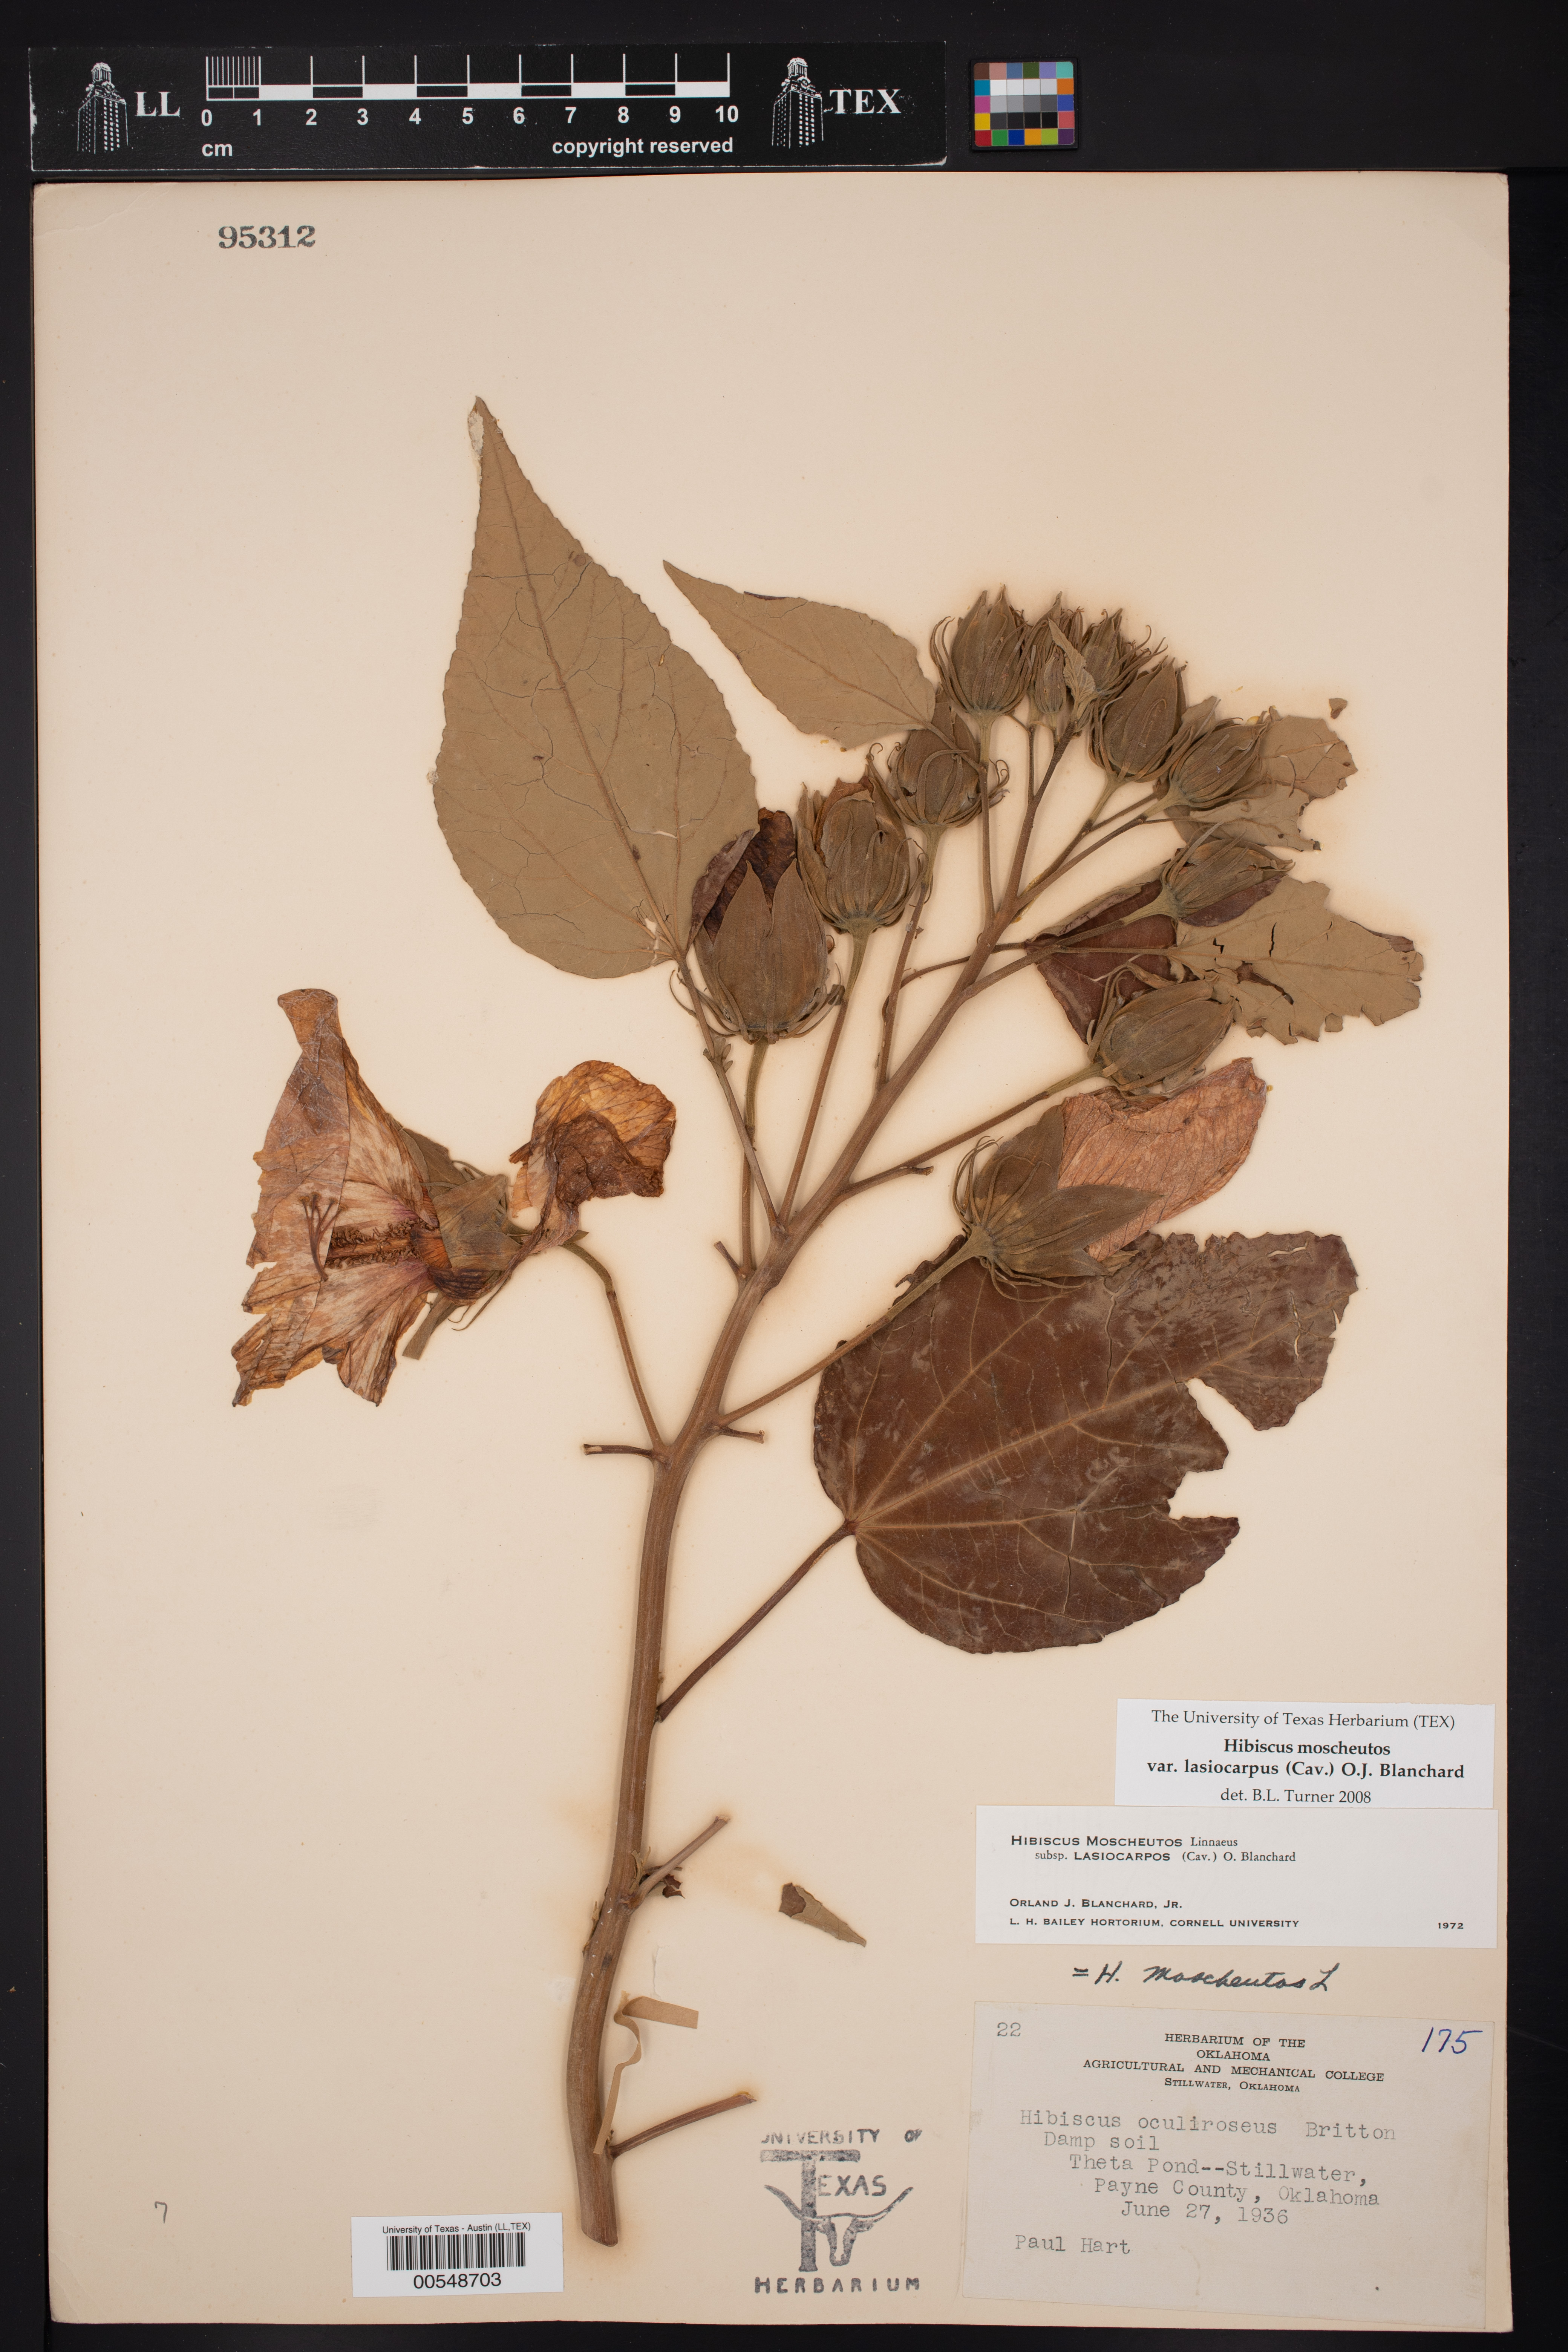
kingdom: Plantae
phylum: Tracheophyta
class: Magnoliopsida
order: Malvales
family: Malvaceae
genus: Hibiscus
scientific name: Hibiscus moscheutos
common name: Common rose-mallow
